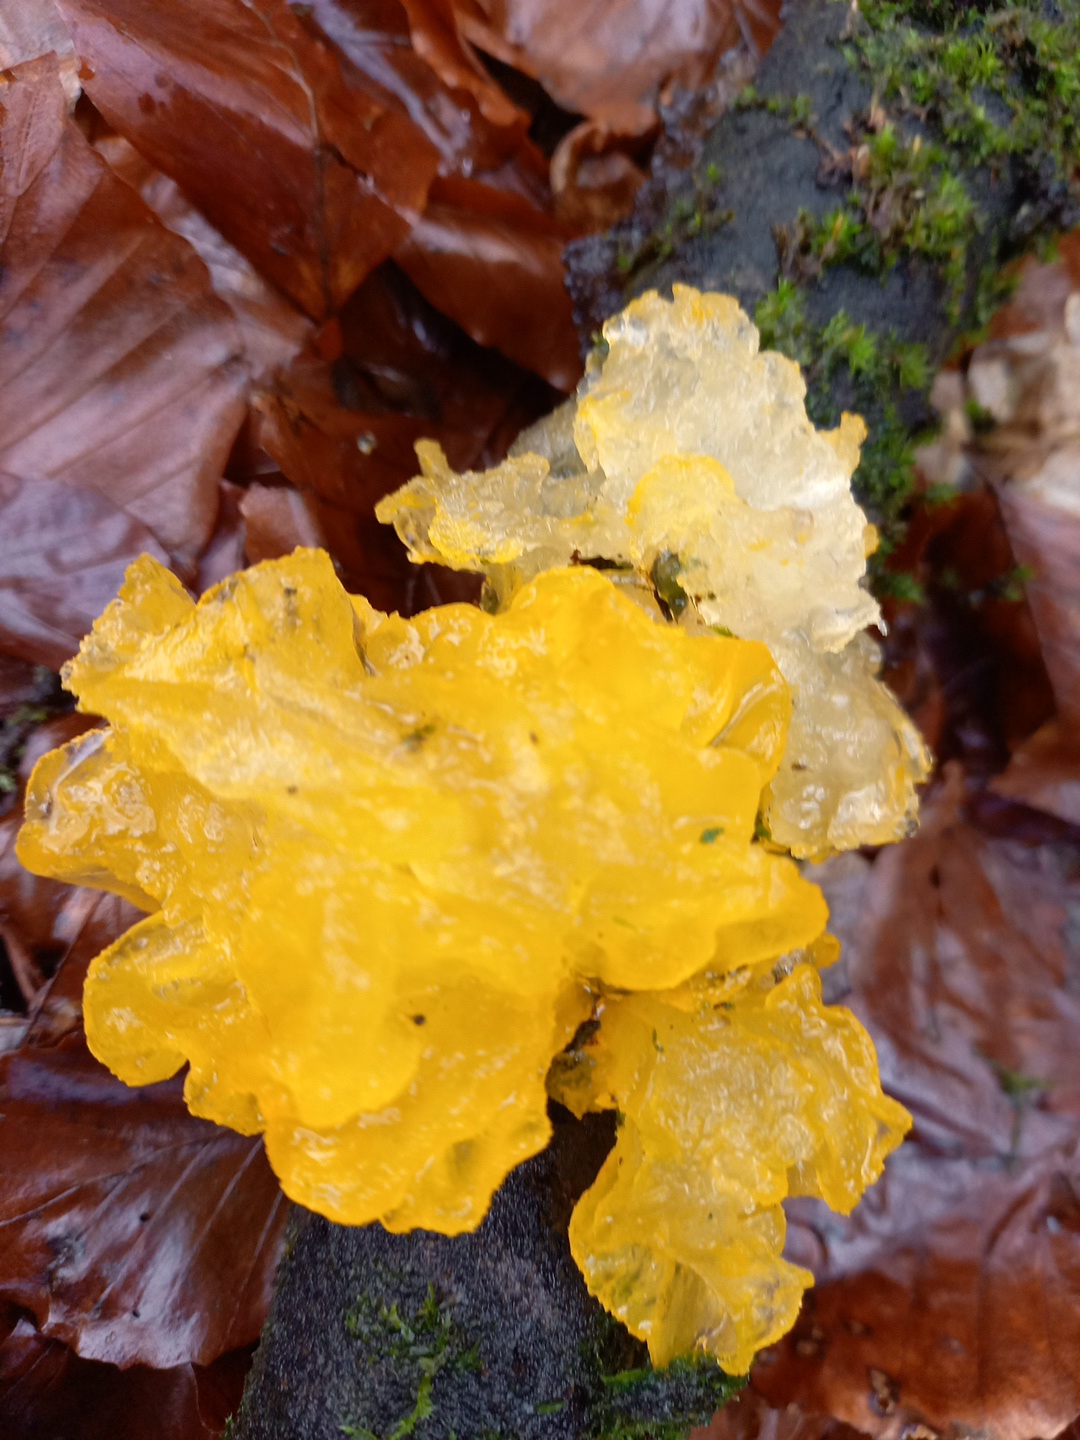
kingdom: Fungi
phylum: Basidiomycota
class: Tremellomycetes
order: Tremellales
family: Tremellaceae
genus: Tremella
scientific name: Tremella mesenterica
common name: gul bævresvamp
